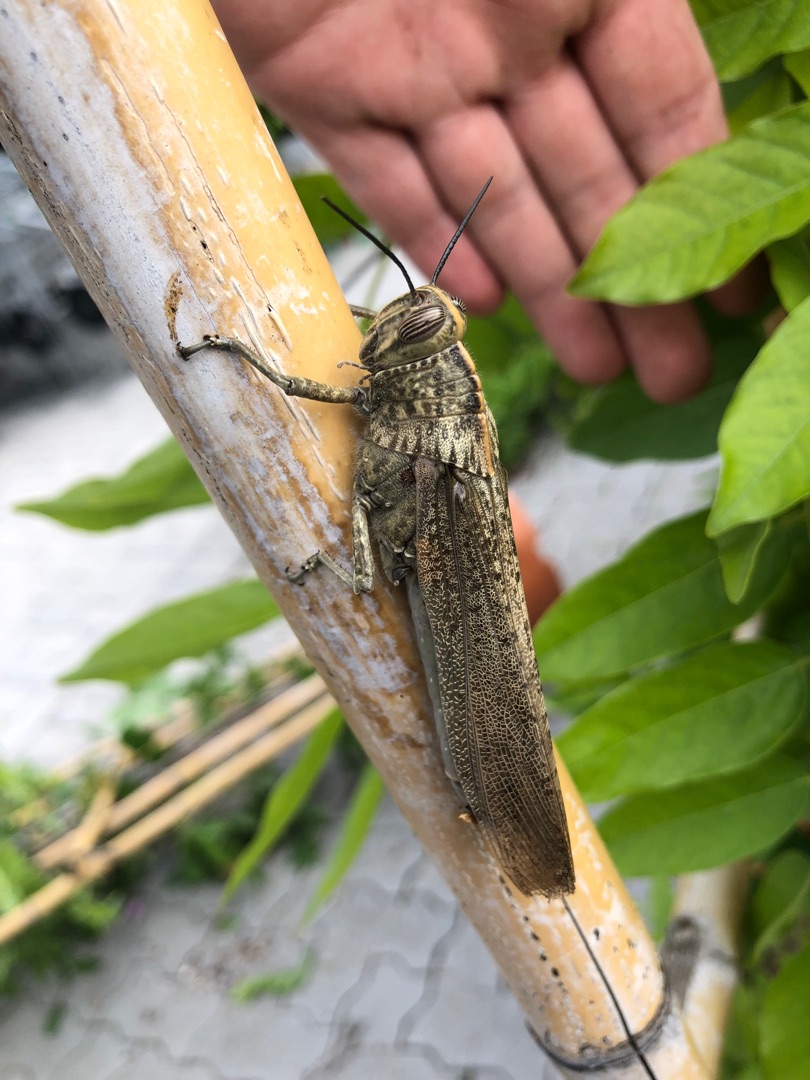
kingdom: Animalia
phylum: Arthropoda
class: Insecta
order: Orthoptera
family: Acrididae
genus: Anacridium
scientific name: Anacridium aegyptium
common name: Ægyptisk markgræshoppe
